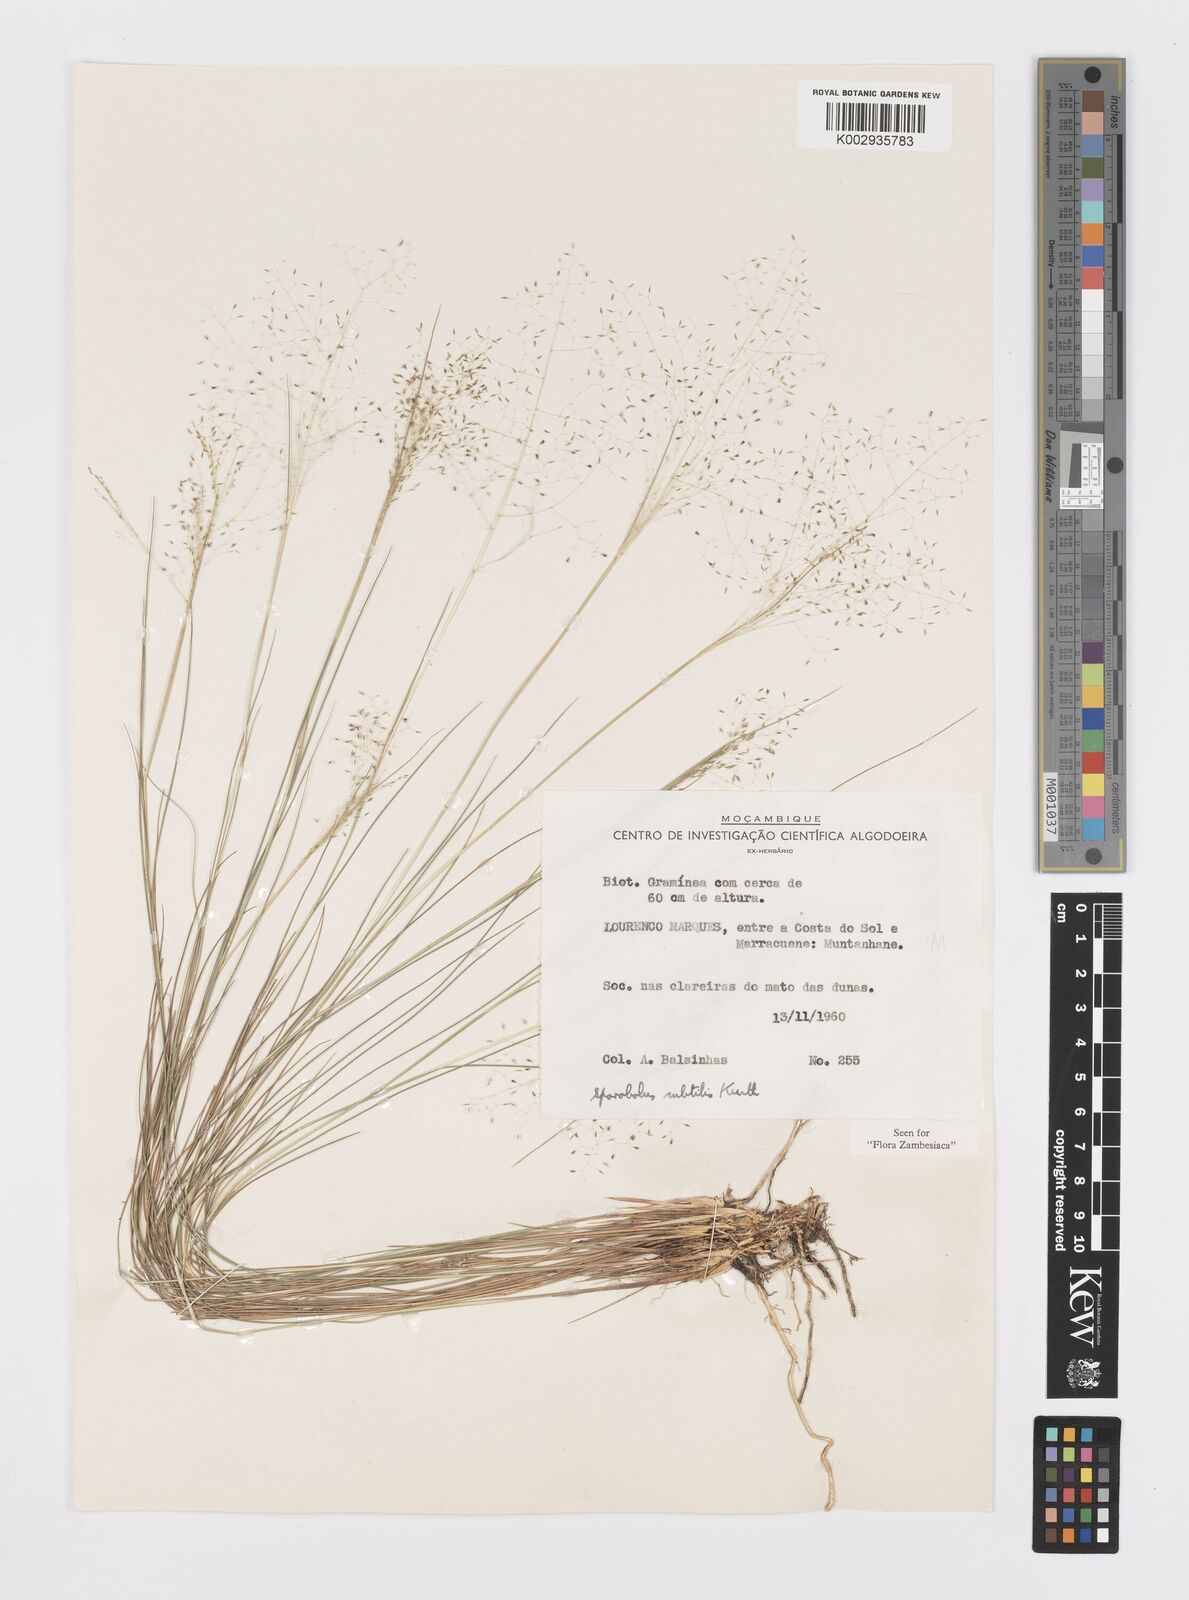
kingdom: Plantae
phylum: Tracheophyta
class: Liliopsida
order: Poales
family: Poaceae
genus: Sporobolus
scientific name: Sporobolus subtilis
